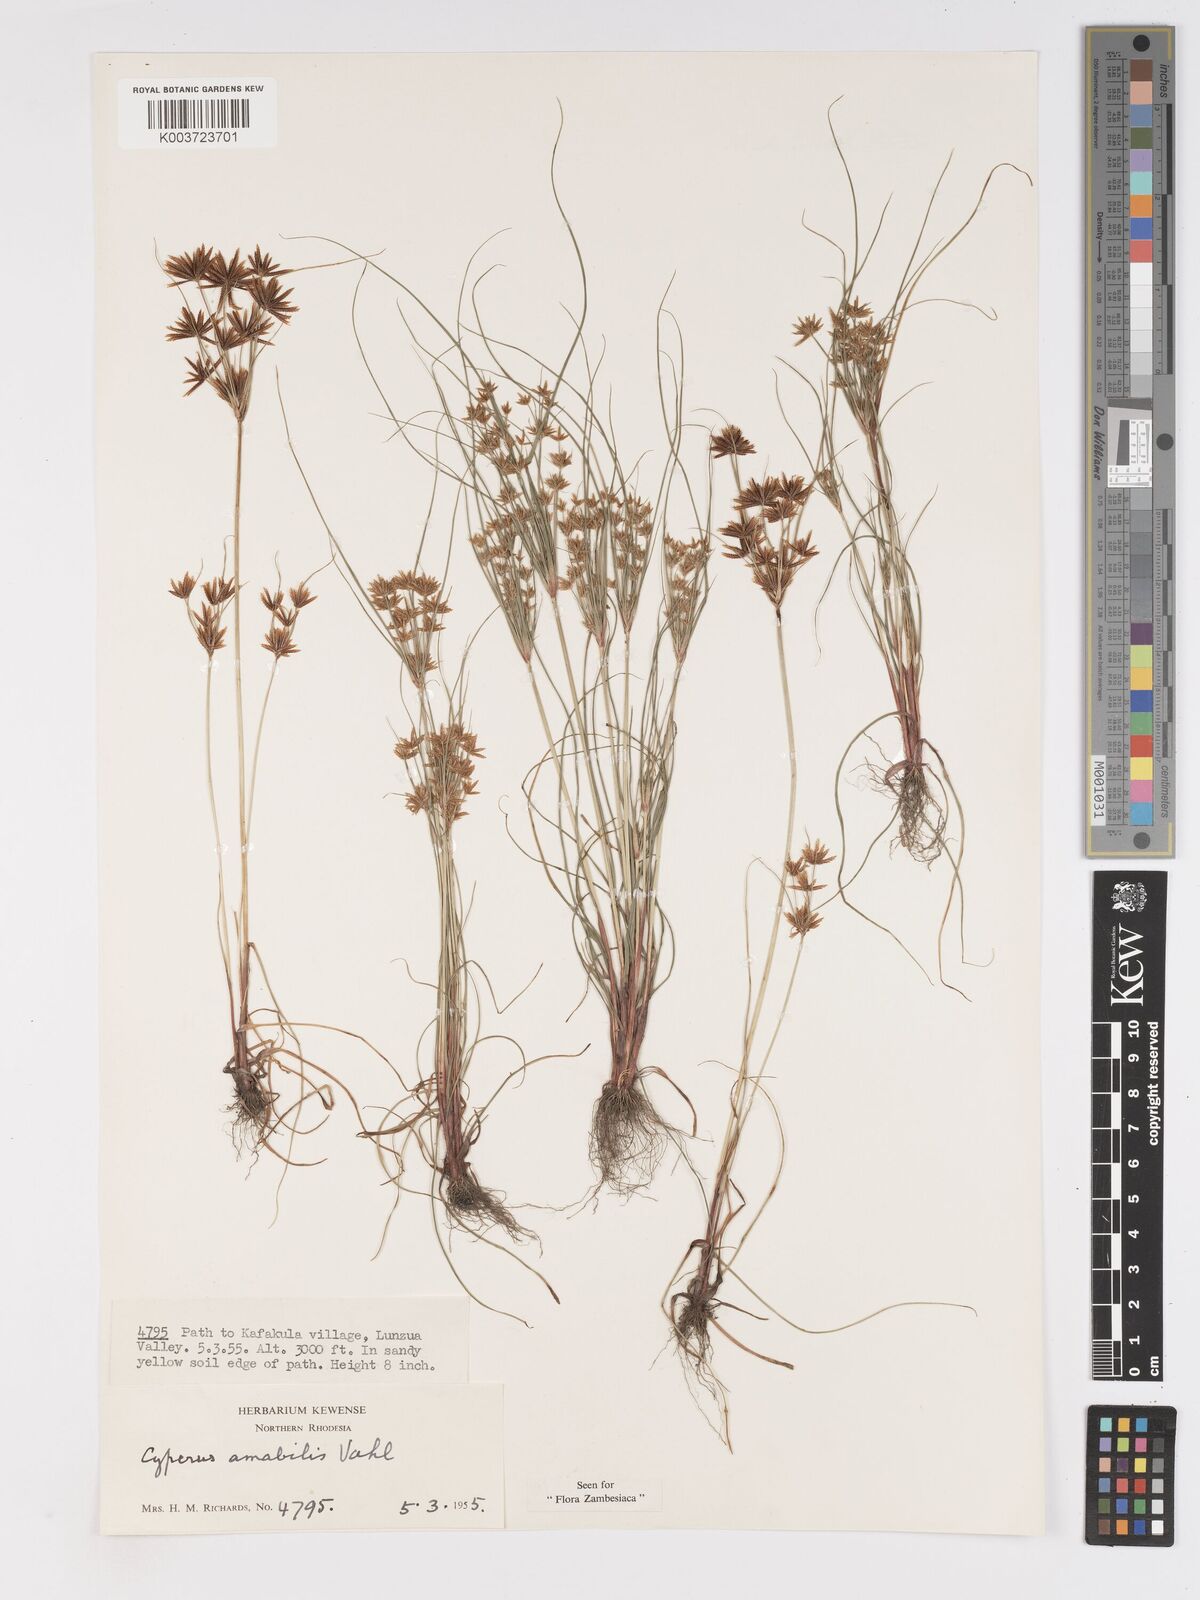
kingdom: Plantae
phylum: Tracheophyta
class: Liliopsida
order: Poales
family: Cyperaceae
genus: Cyperus
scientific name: Cyperus amabilis
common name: Foothill flat sedge
